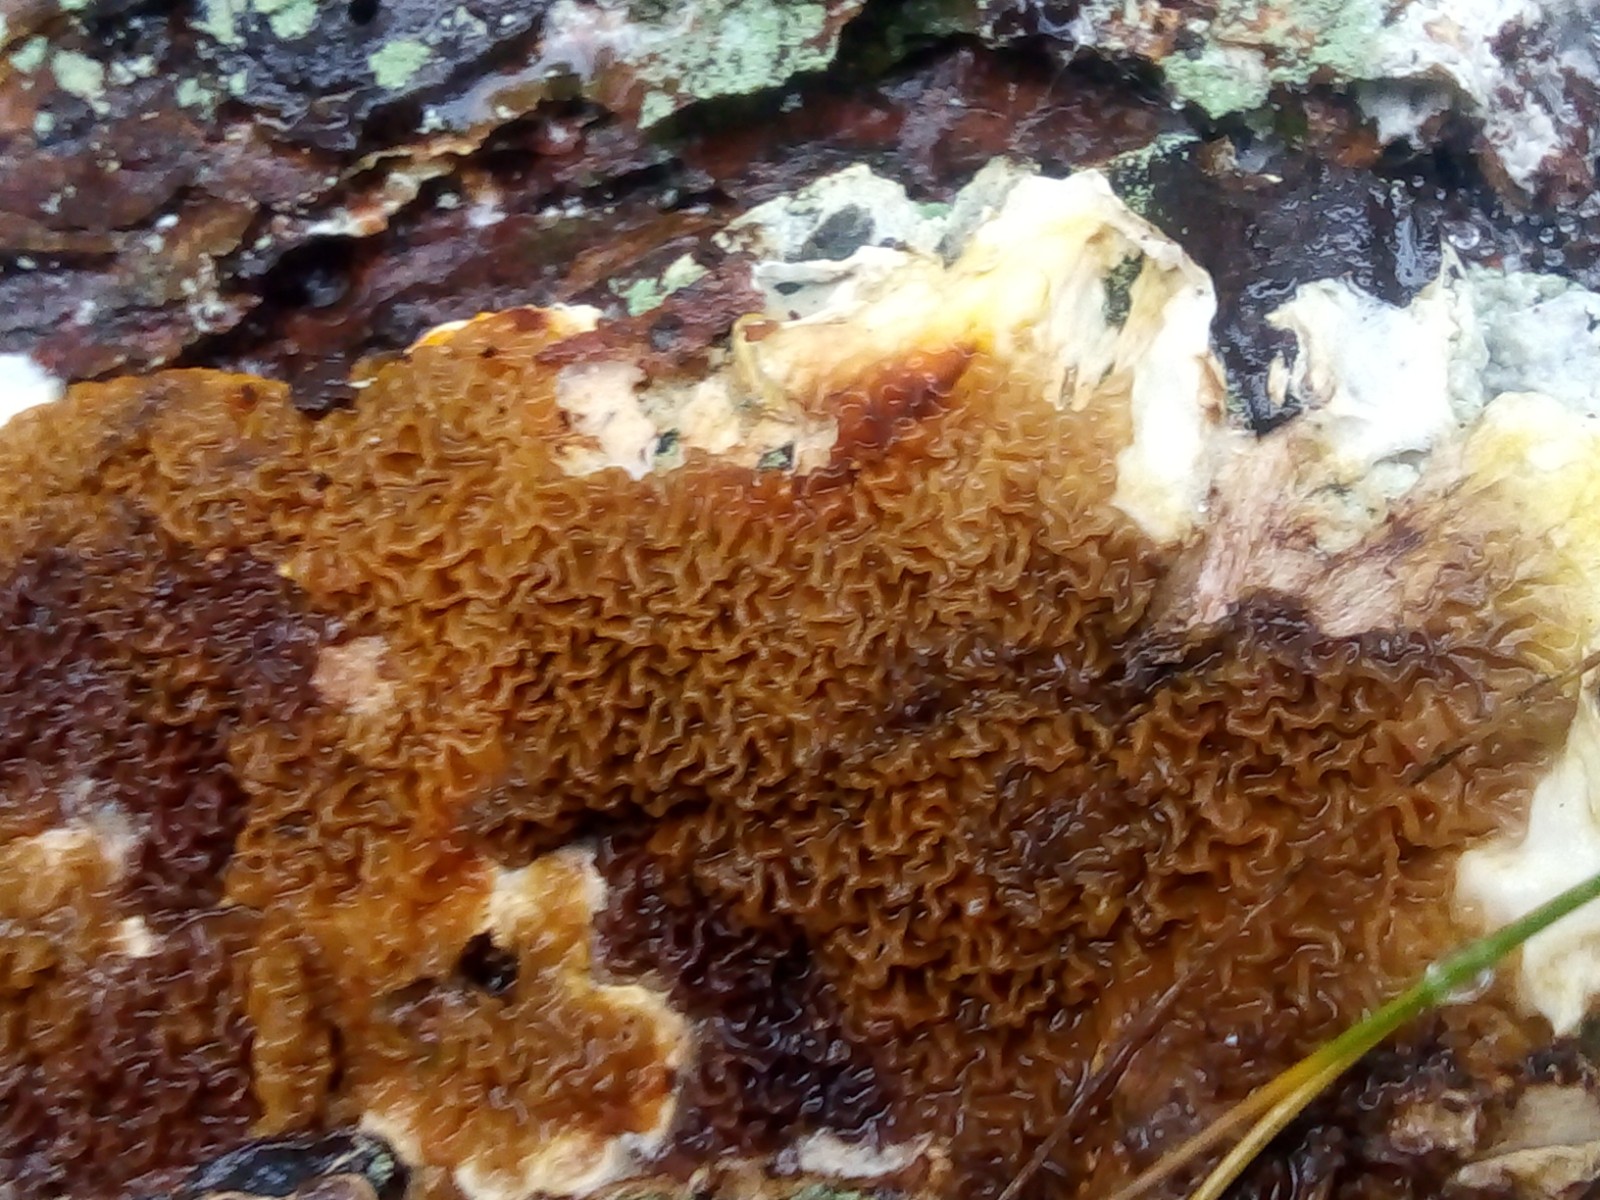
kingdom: Fungi
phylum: Basidiomycota
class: Agaricomycetes
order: Boletales
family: Serpulaceae
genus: Serpula
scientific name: Serpula himantioides
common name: tyndkødet hussvamp
